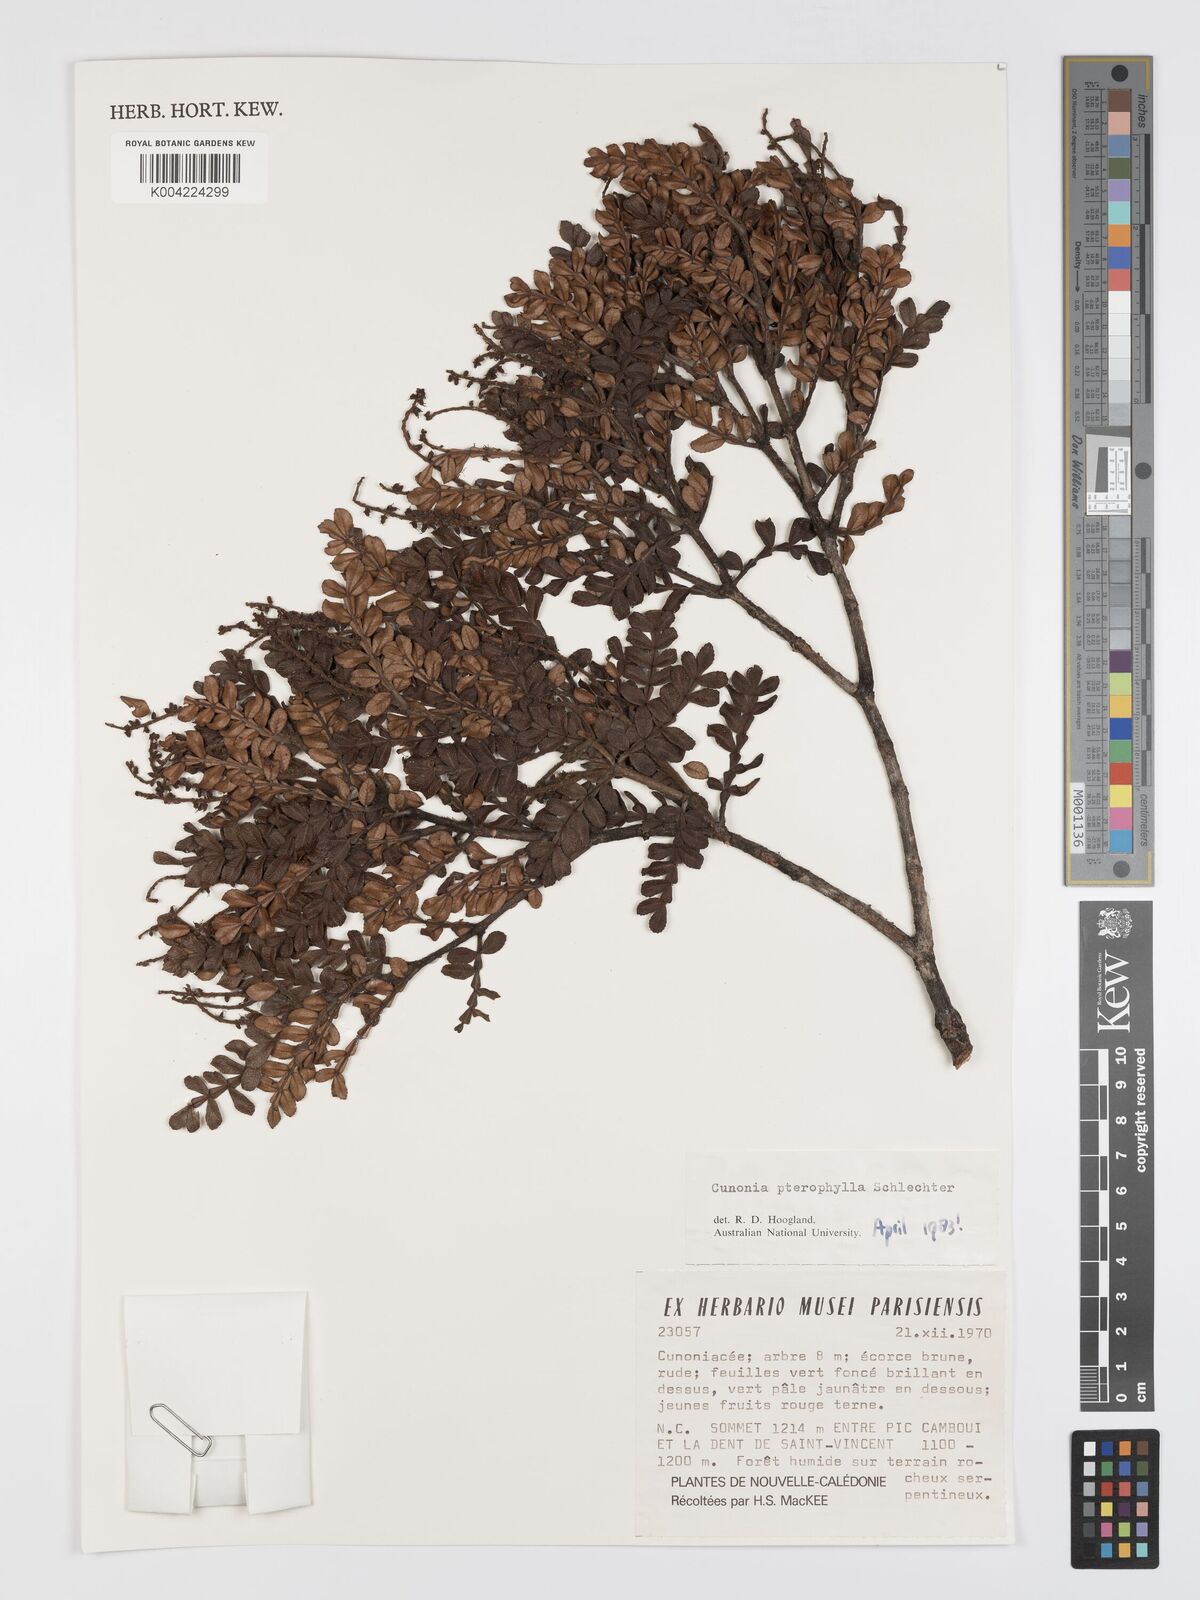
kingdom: Plantae
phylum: Tracheophyta
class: Magnoliopsida
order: Oxalidales
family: Cunoniaceae
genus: Cunonia
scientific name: Cunonia pterophylla
